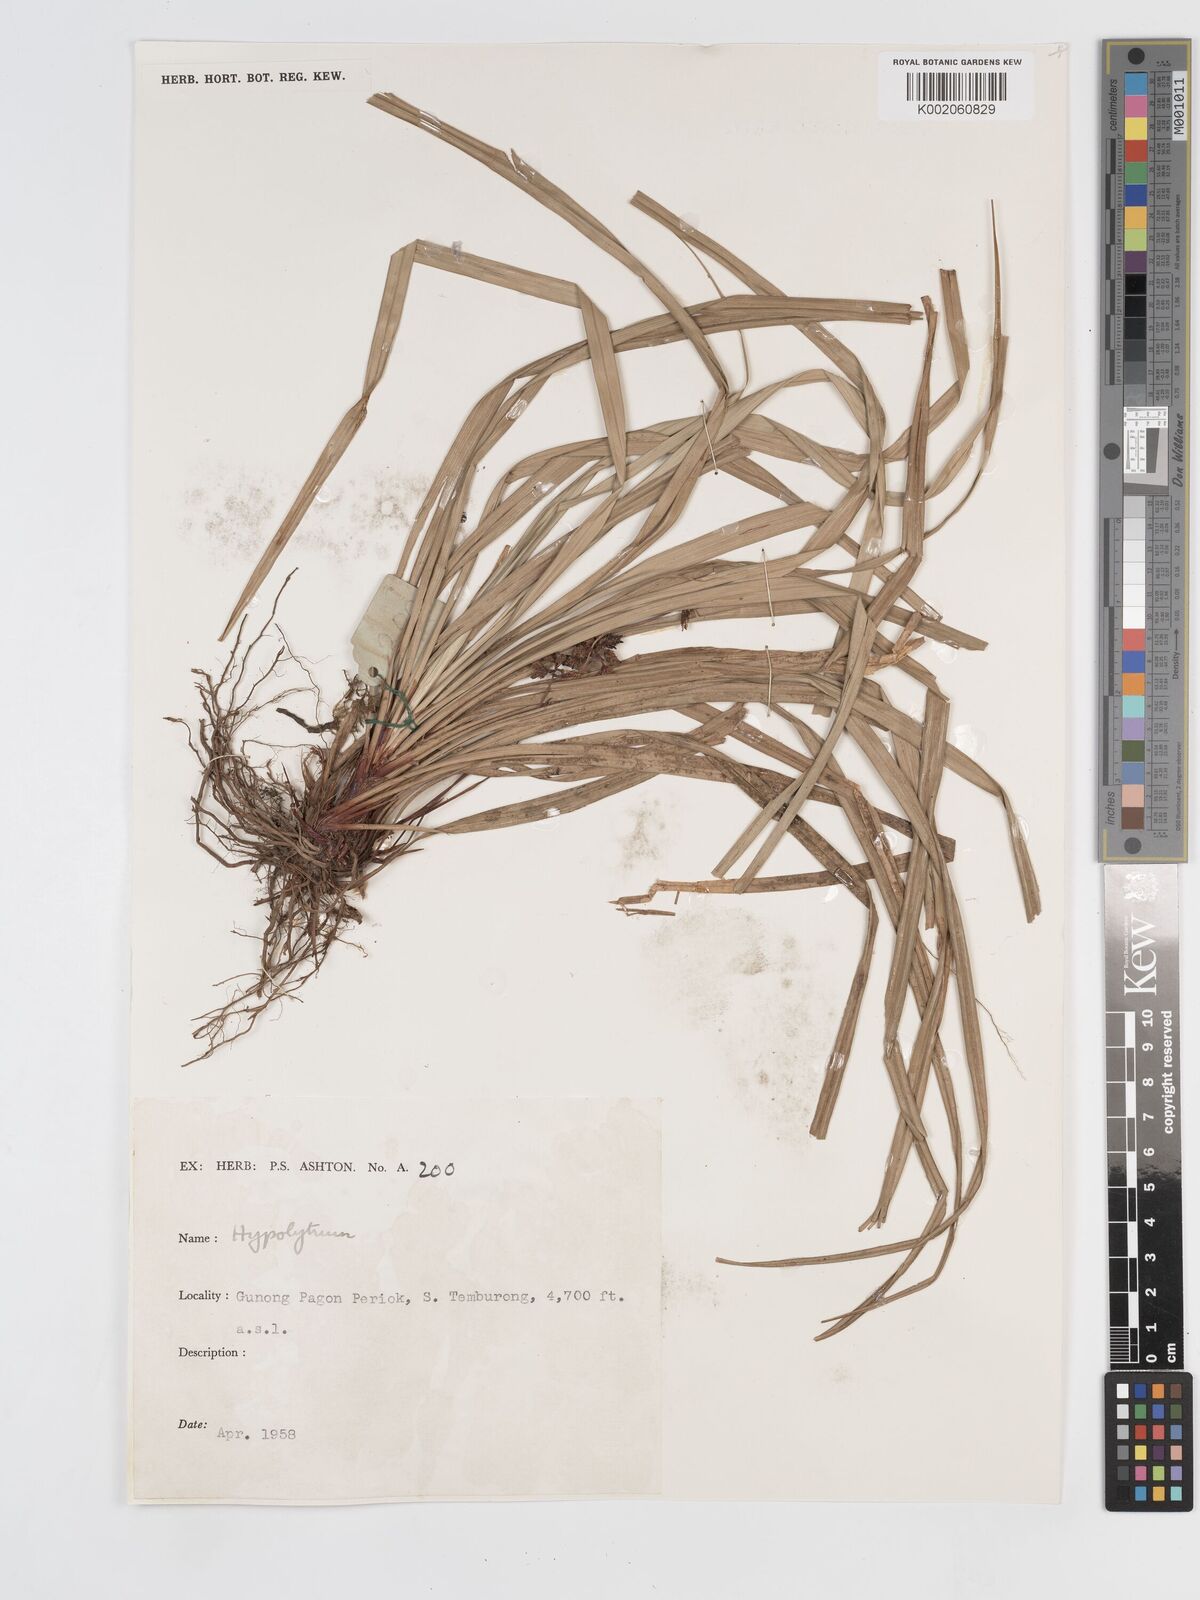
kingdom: Plantae
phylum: Tracheophyta
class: Liliopsida
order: Poales
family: Cyperaceae
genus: Hypolytrum
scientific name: Hypolytrum
